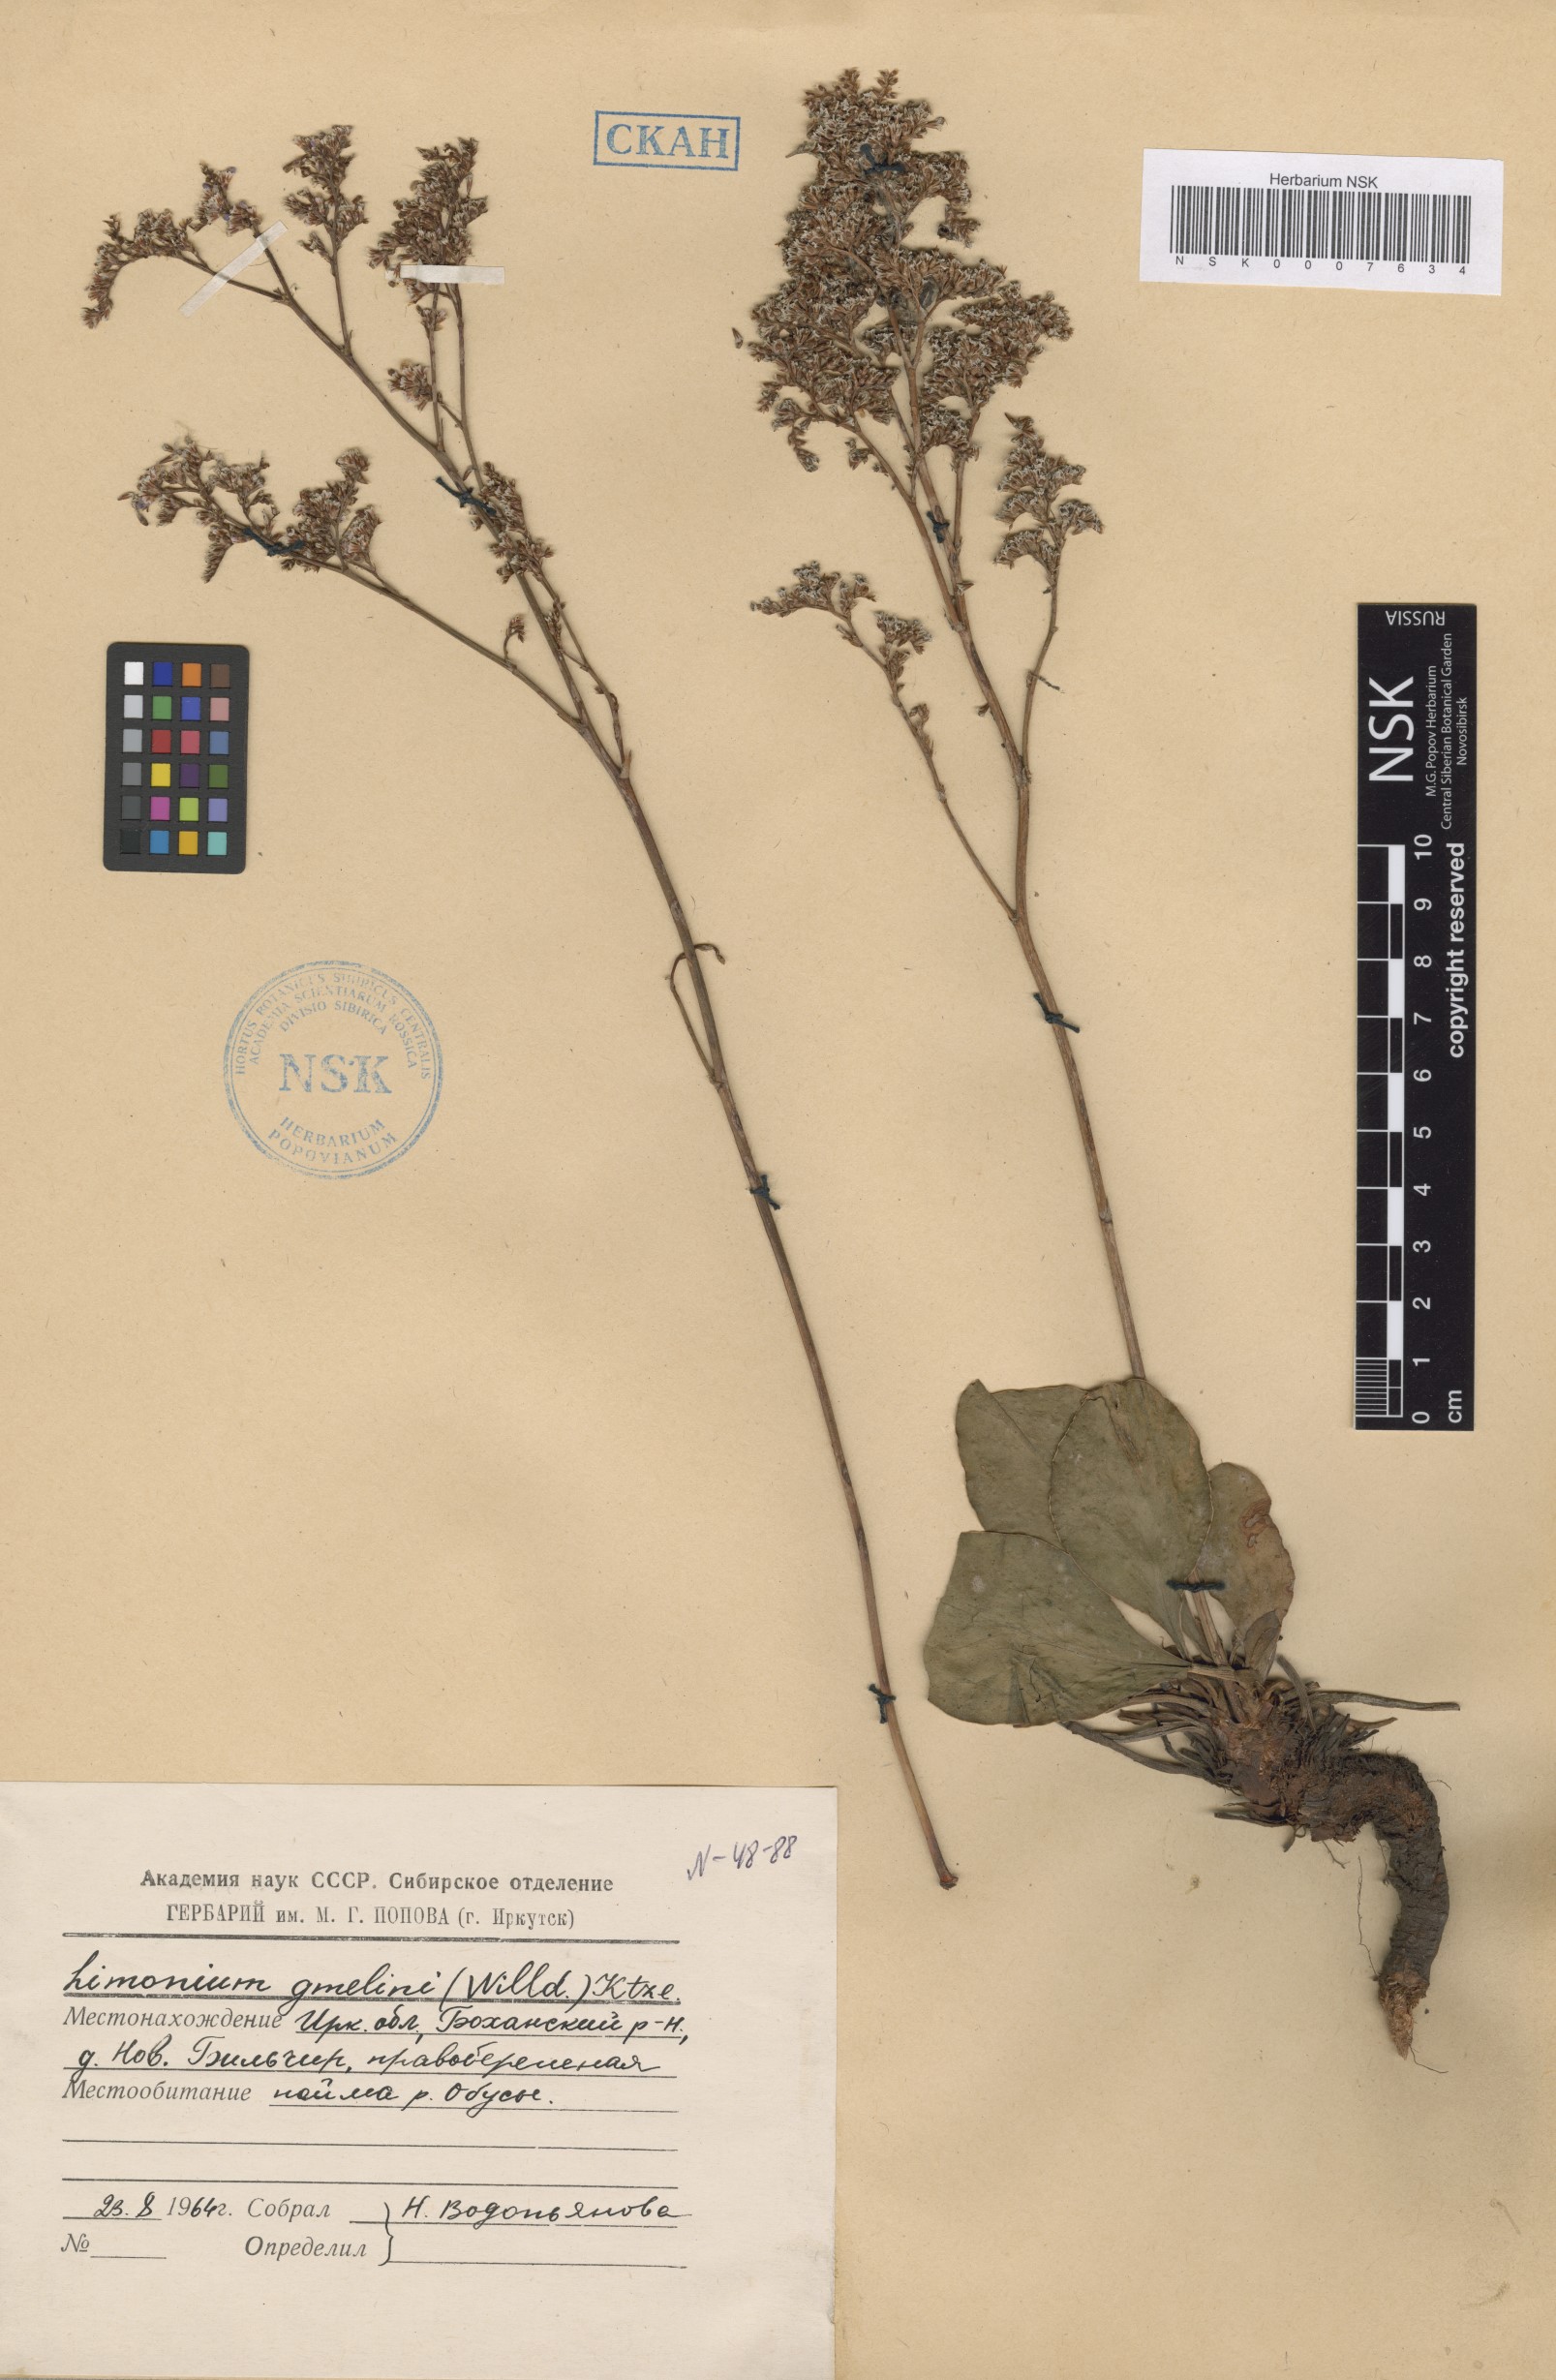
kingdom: Plantae
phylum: Tracheophyta
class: Magnoliopsida
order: Caryophyllales
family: Plumbaginaceae
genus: Limonium
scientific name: Limonium gmelini
